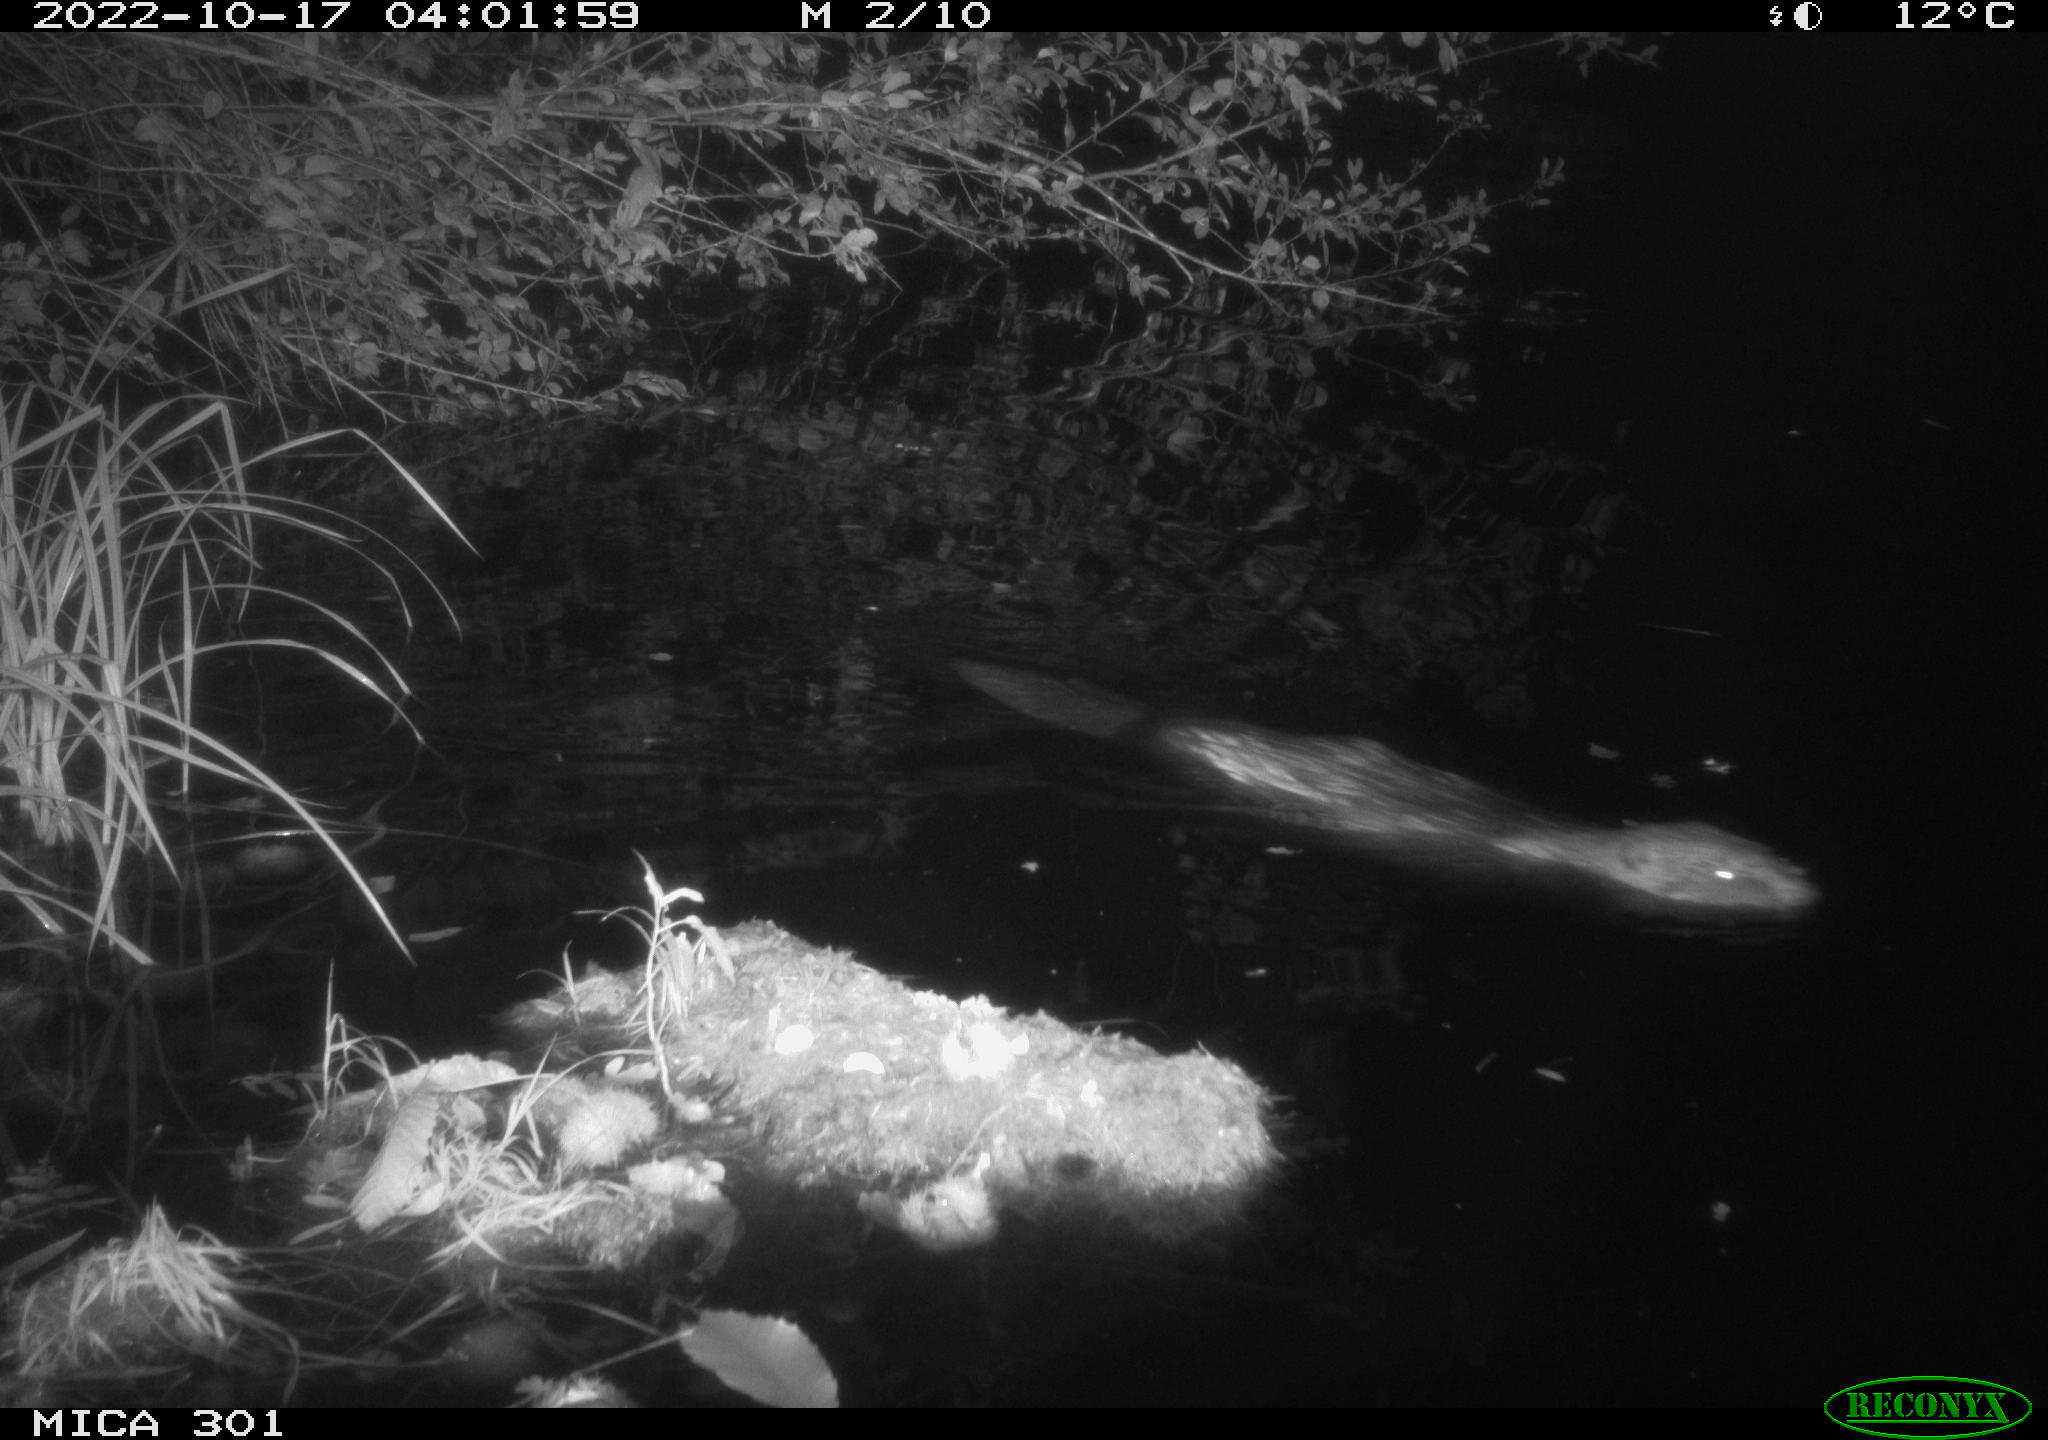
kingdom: Animalia
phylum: Chordata
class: Mammalia
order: Rodentia
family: Castoridae
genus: Castor
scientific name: Castor fiber
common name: Eurasian beaver
